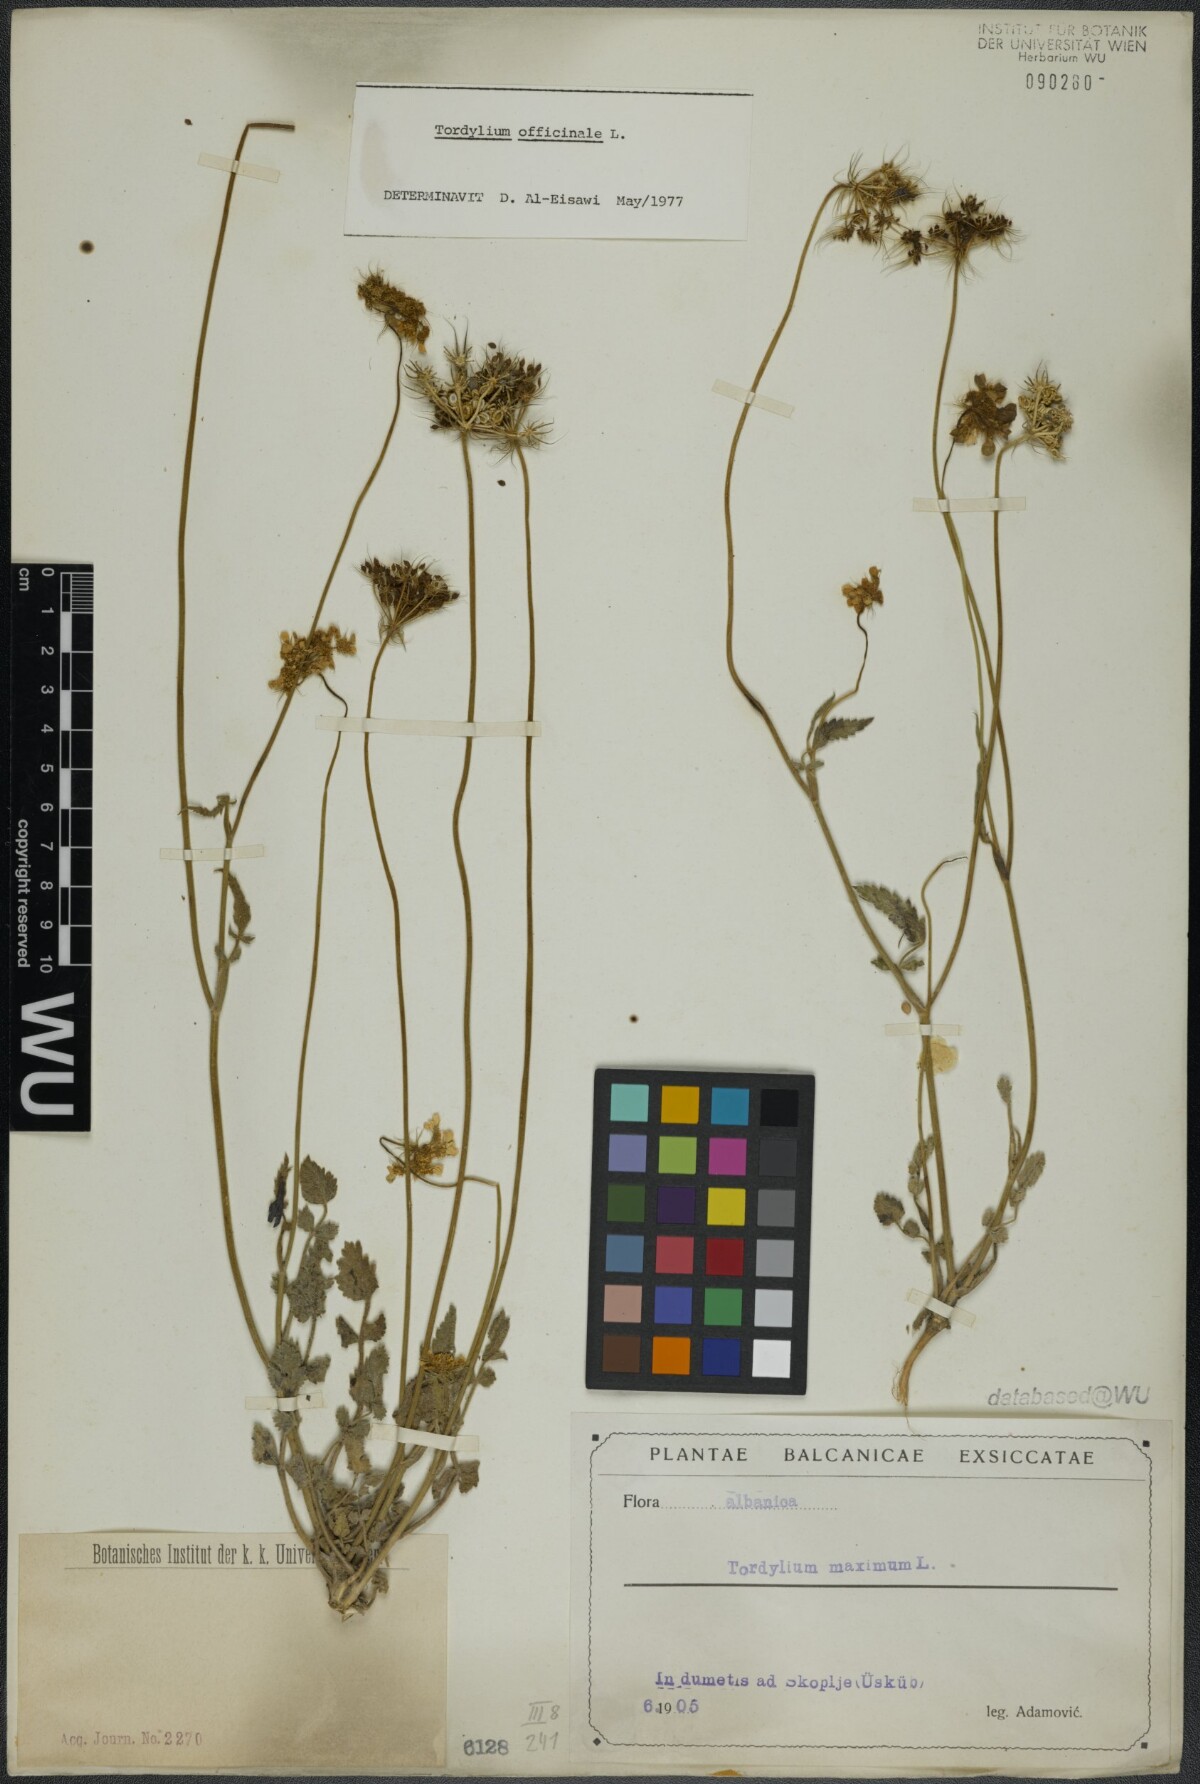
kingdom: Plantae
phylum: Tracheophyta
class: Magnoliopsida
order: Apiales
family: Apiaceae
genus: Tordylium
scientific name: Tordylium officinale
